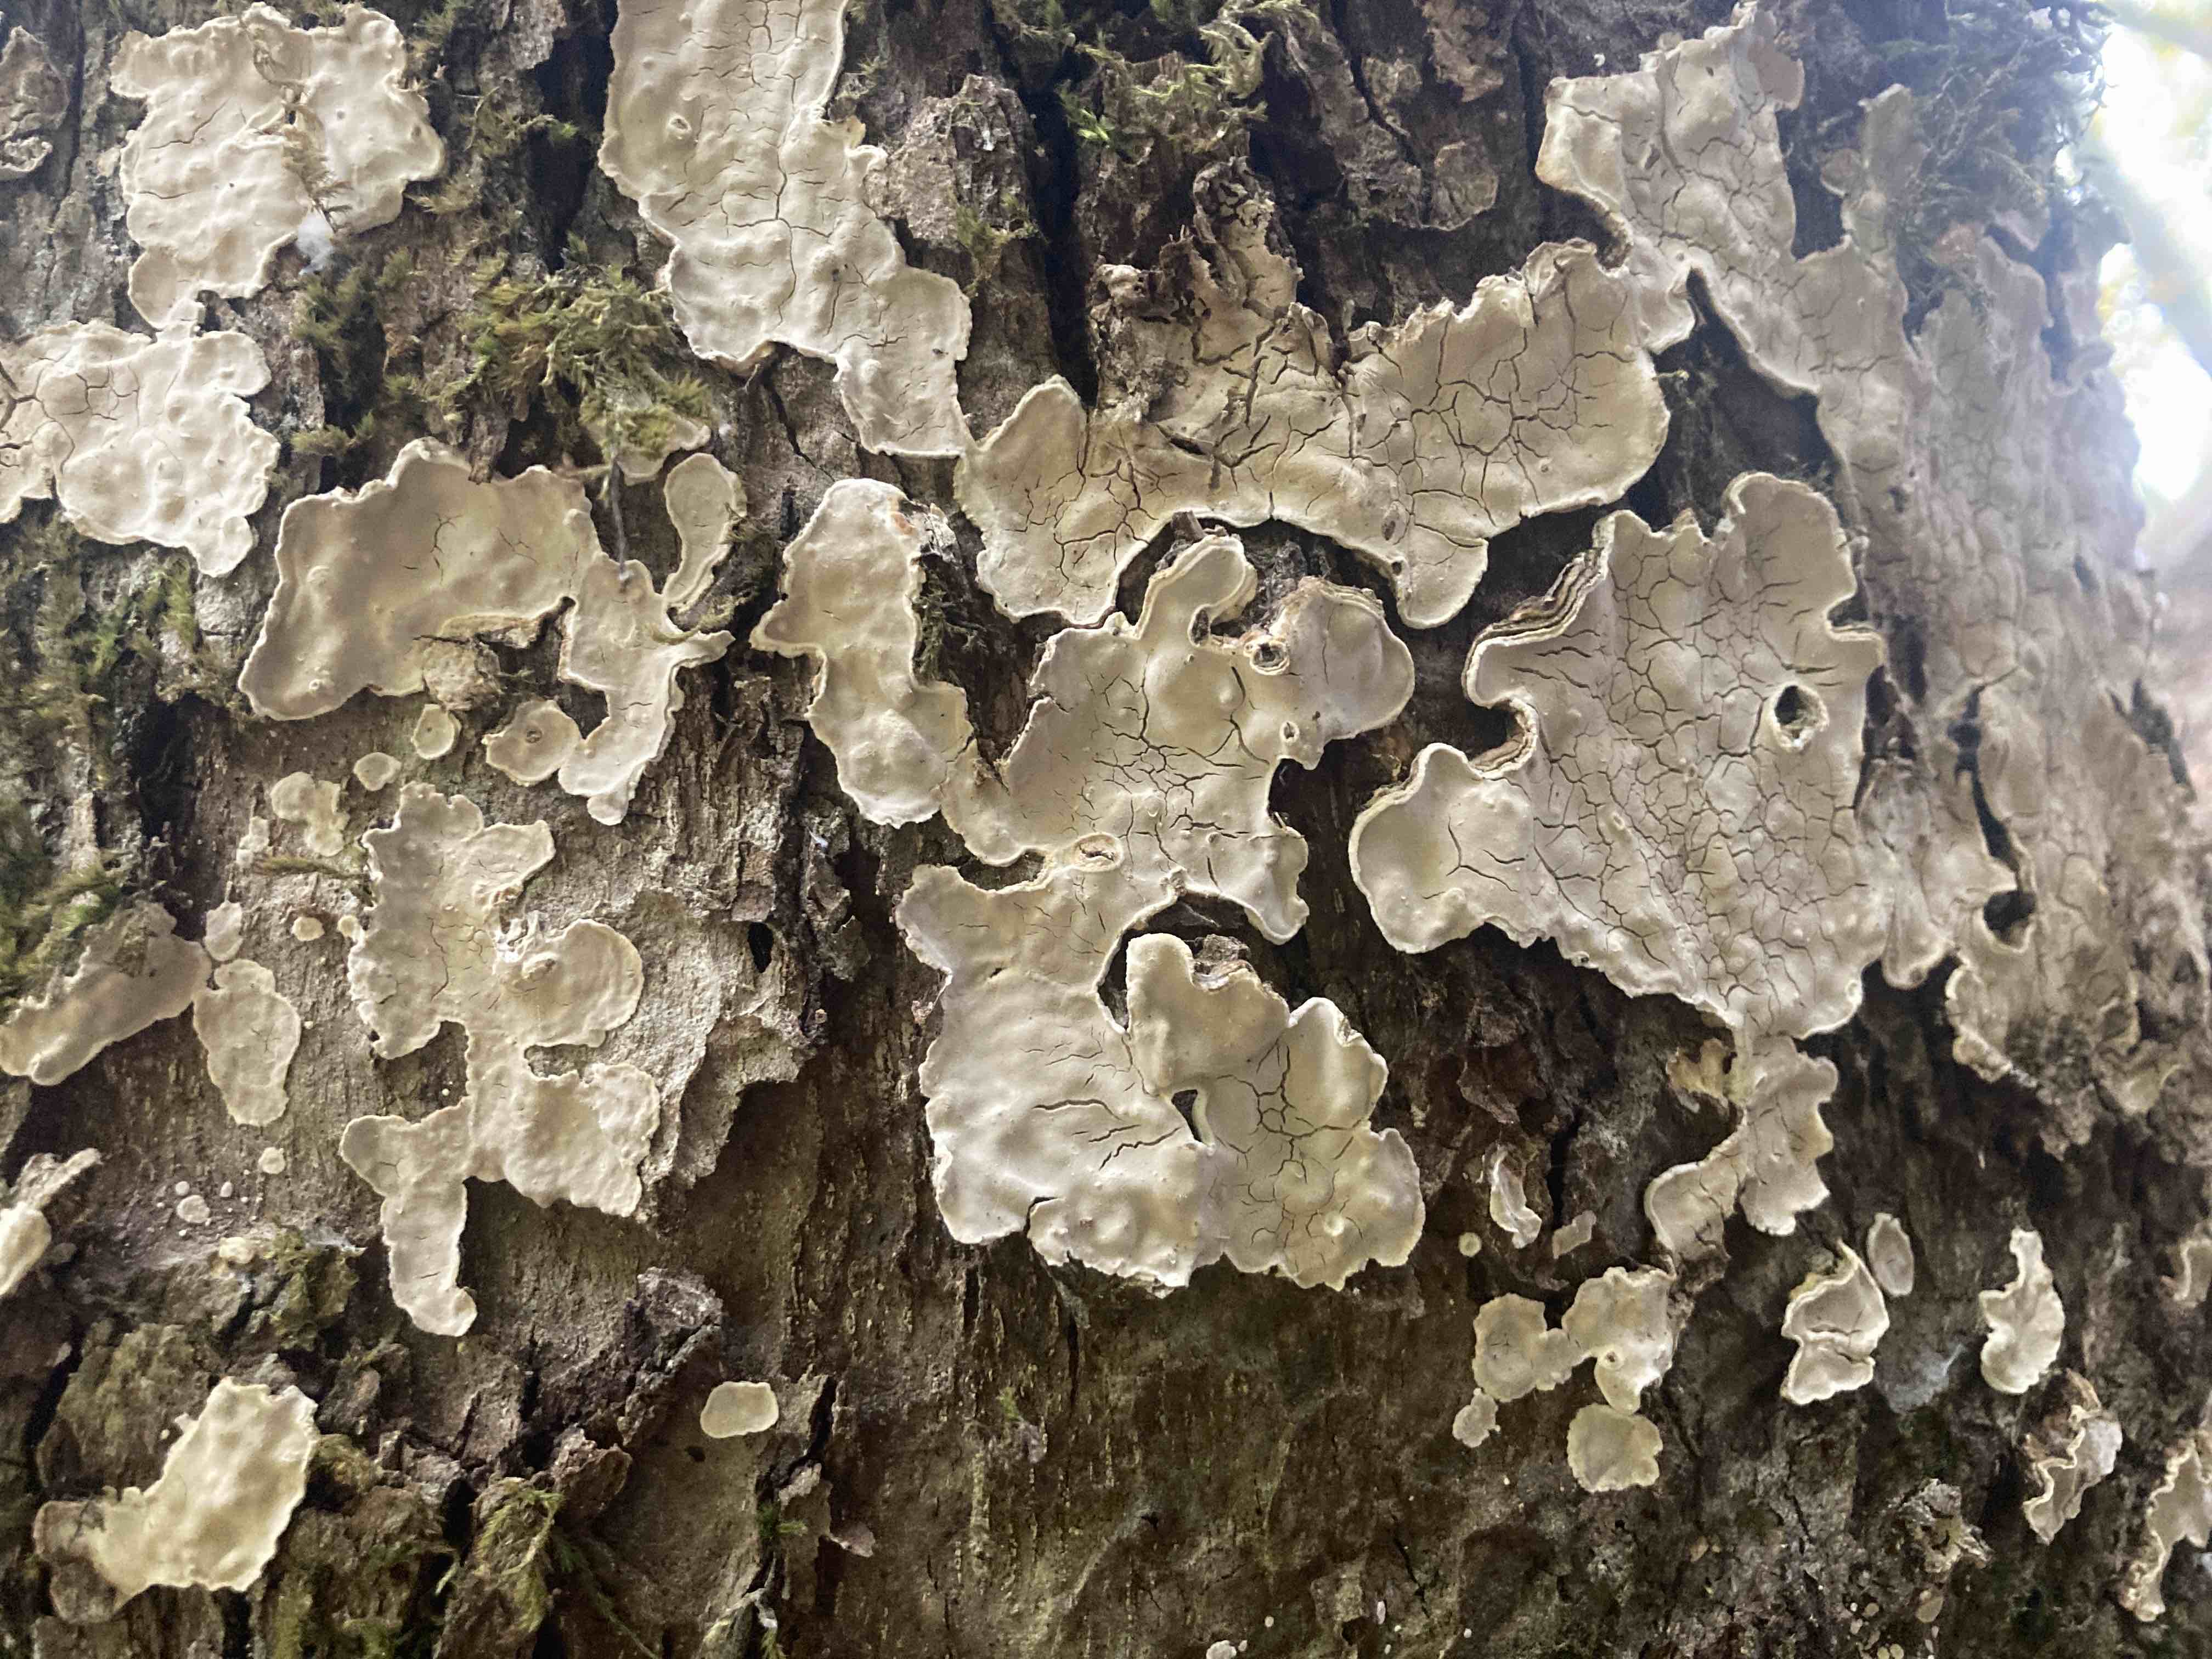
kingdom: Fungi
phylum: Basidiomycota
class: Agaricomycetes
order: Russulales
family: Stereaceae
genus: Aleurodiscus
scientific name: Aleurodiscus disciformis
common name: hvidlig skiveskorpe
